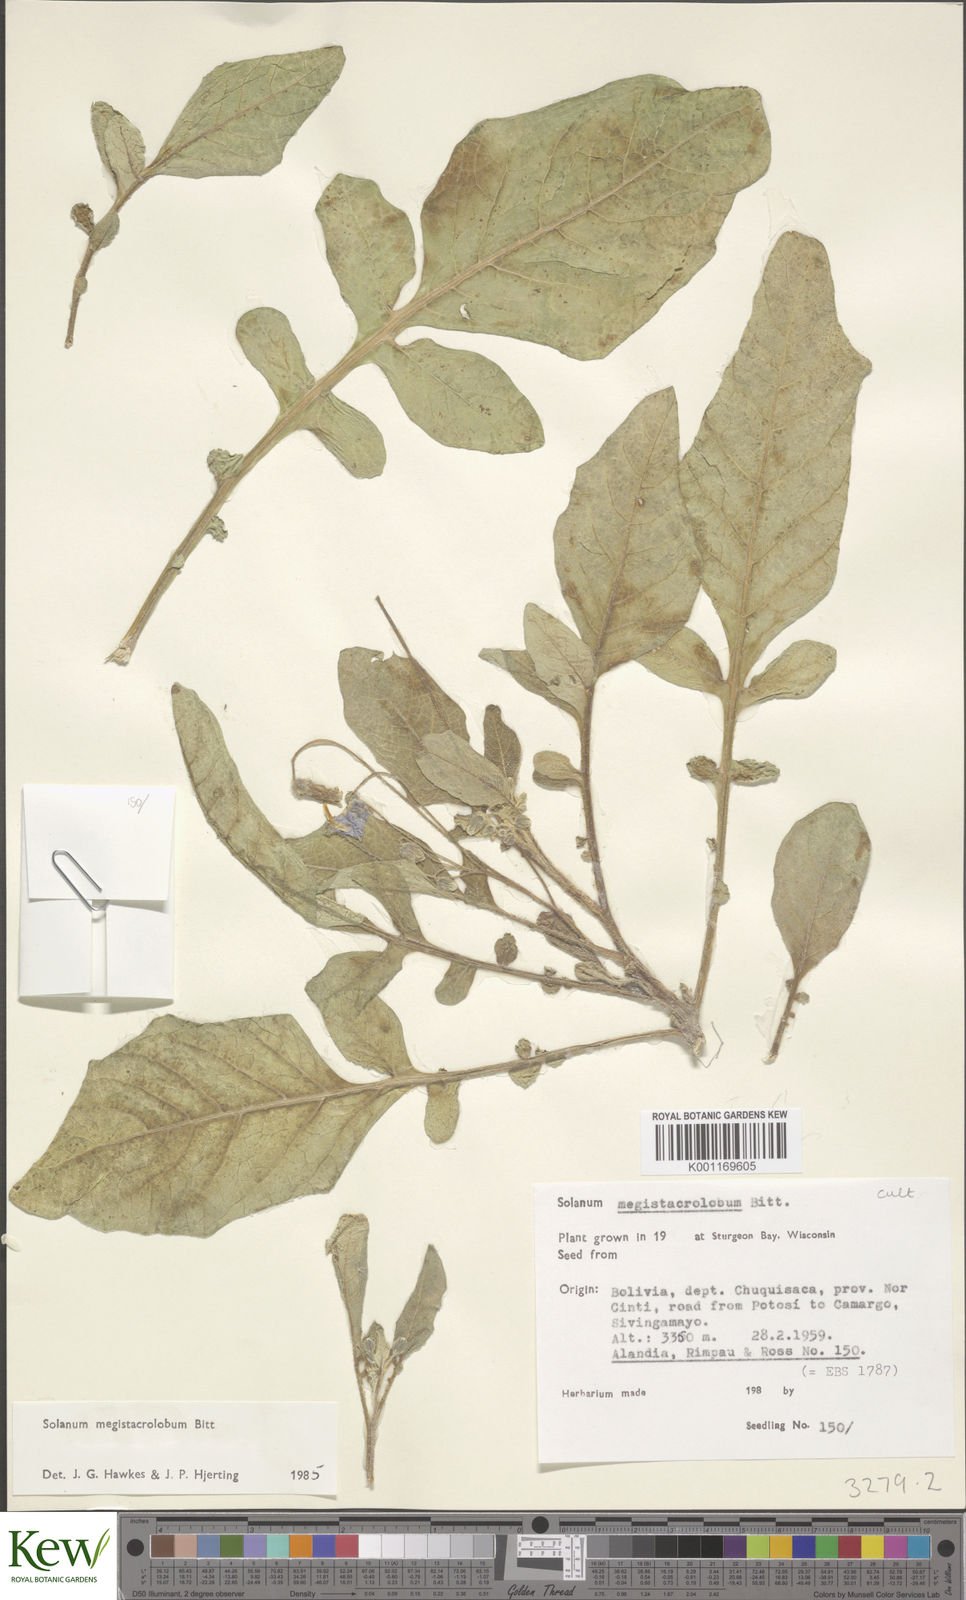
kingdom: Plantae
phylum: Tracheophyta
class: Magnoliopsida
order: Solanales
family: Solanaceae
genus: Solanum
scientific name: Solanum boliviense
